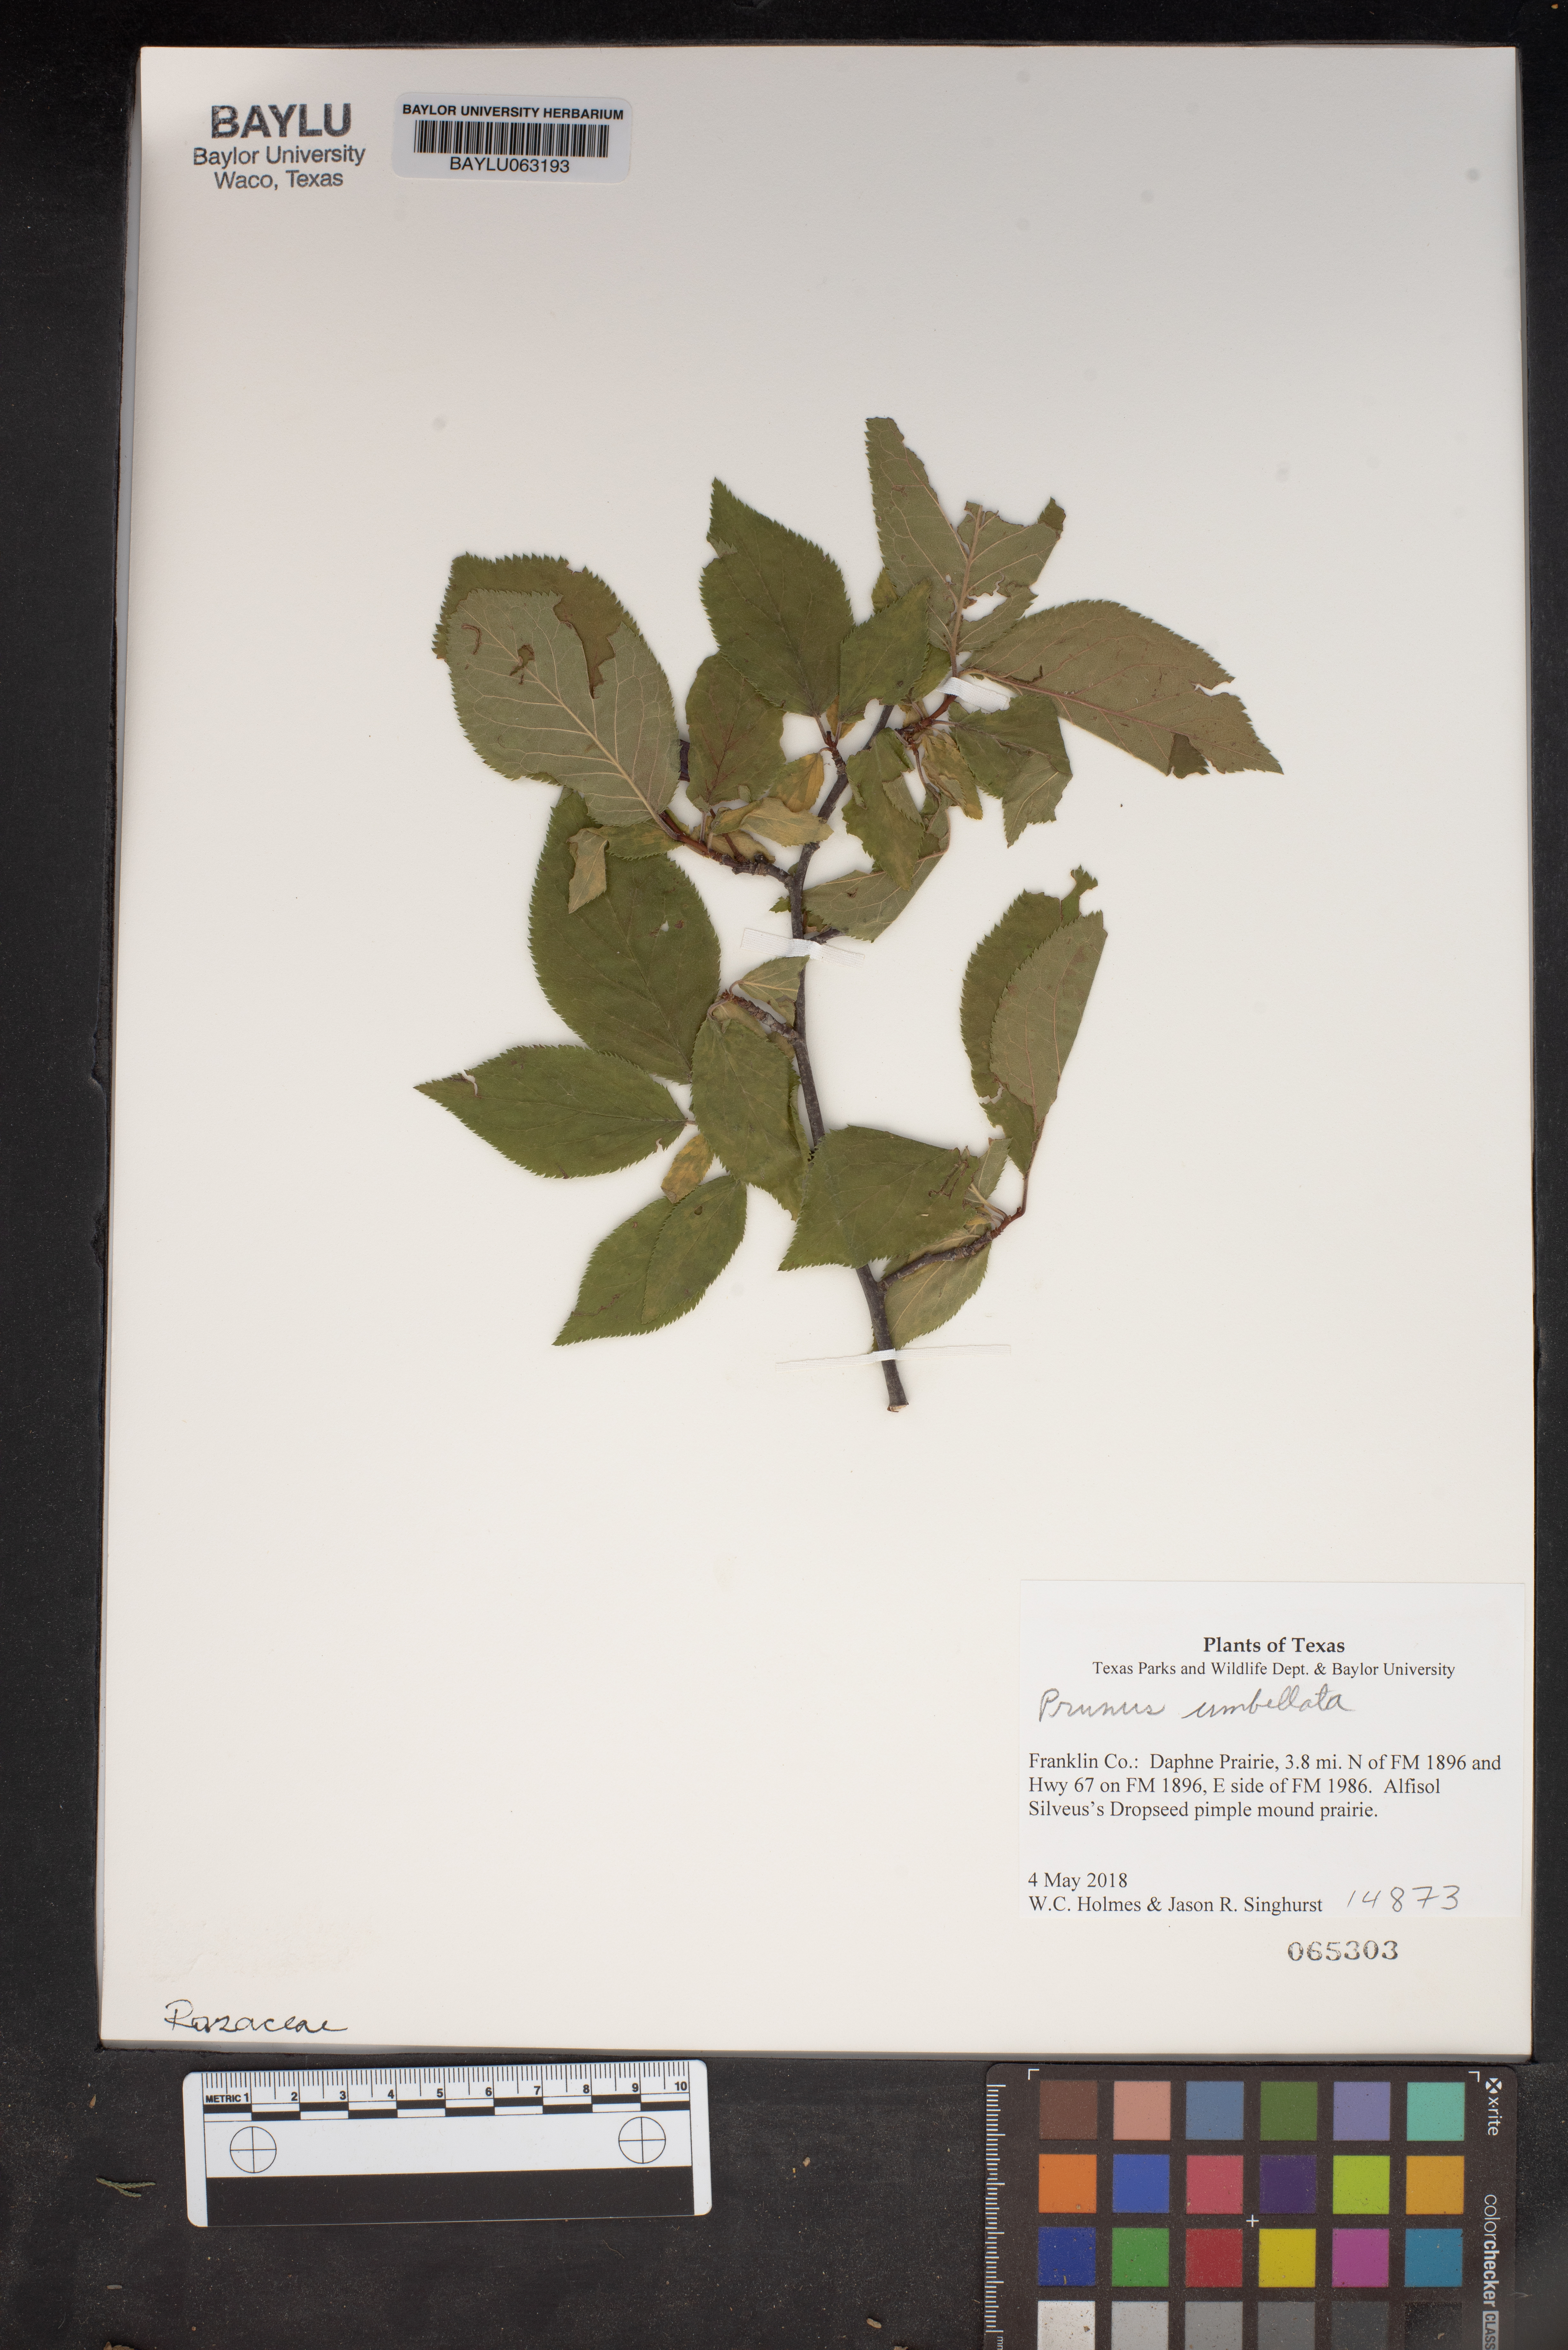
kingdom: Plantae
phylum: Tracheophyta
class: Magnoliopsida
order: Rosales
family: Rosaceae
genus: Prunus
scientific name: Prunus umbellata
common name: Allegheny plum
